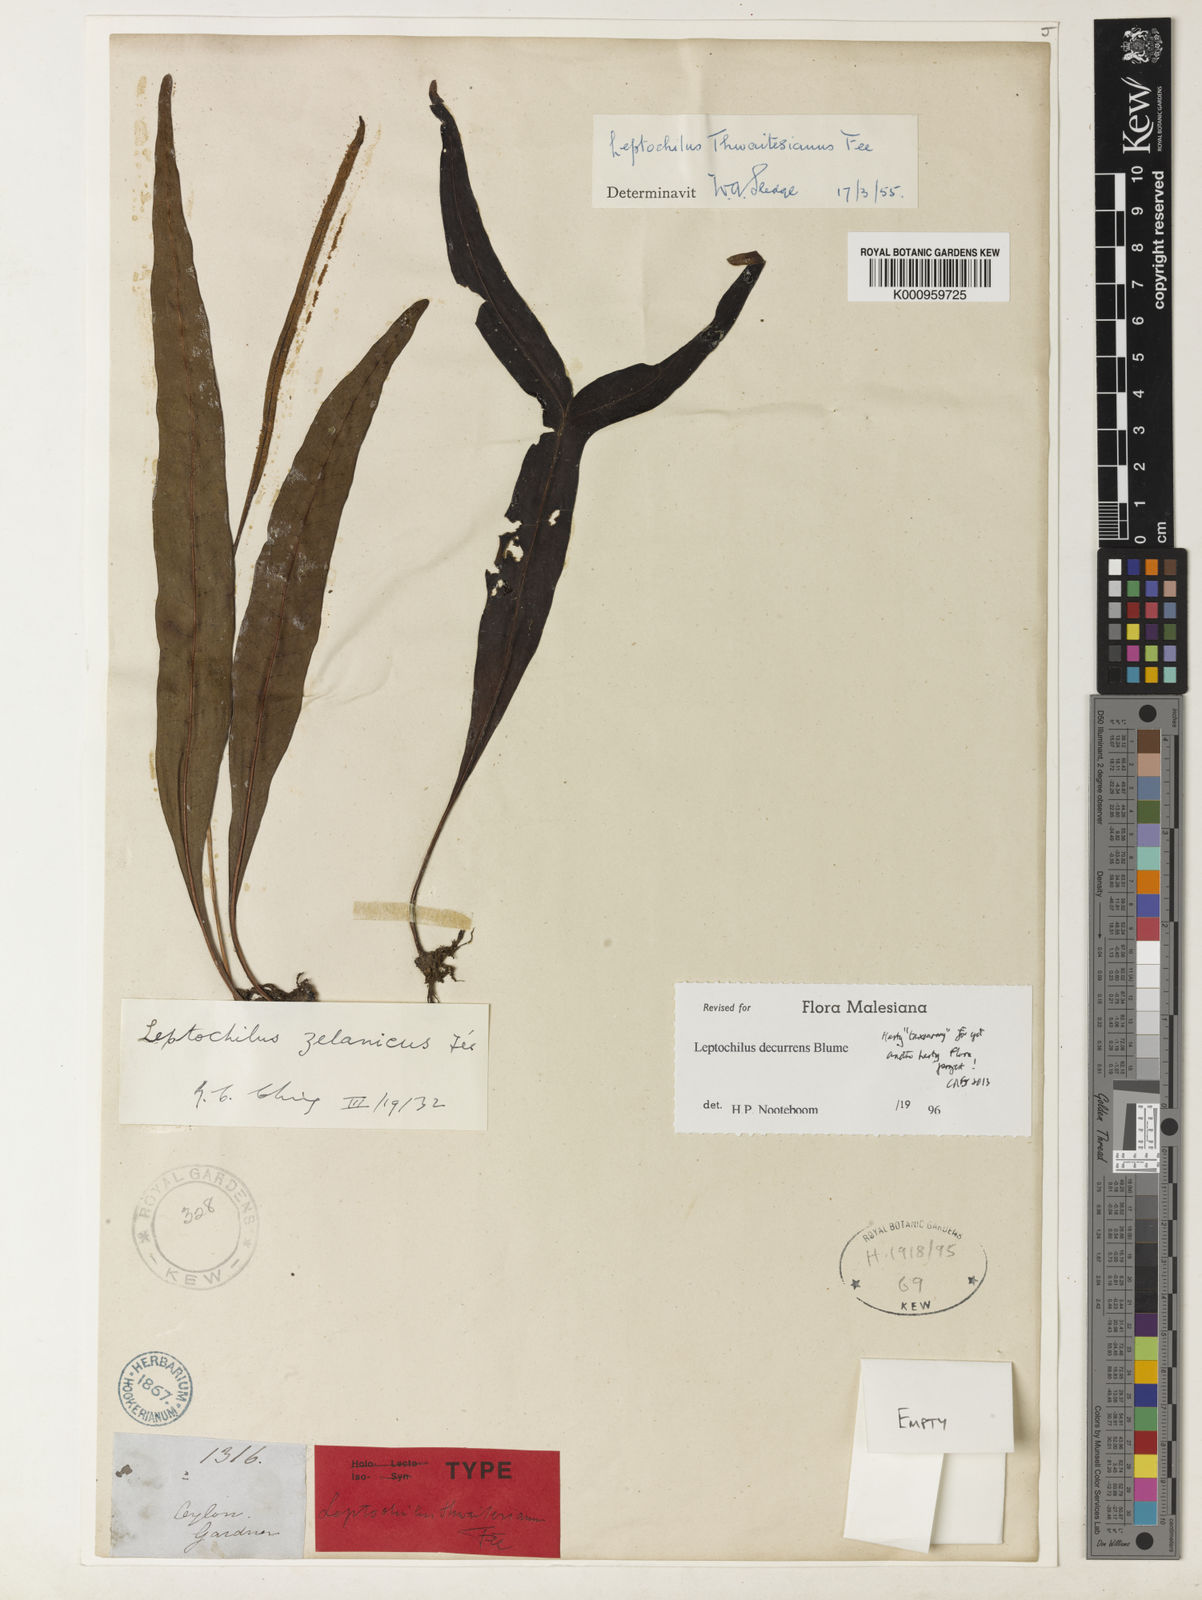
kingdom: Plantae
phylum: Tracheophyta
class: Polypodiopsida
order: Polypodiales
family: Polypodiaceae
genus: Leptochilus
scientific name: Leptochilus decurrens
